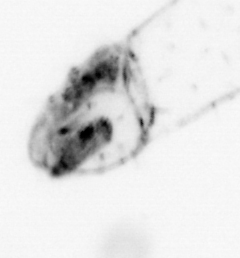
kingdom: Animalia
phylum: Arthropoda
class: Copepoda
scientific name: Copepoda
